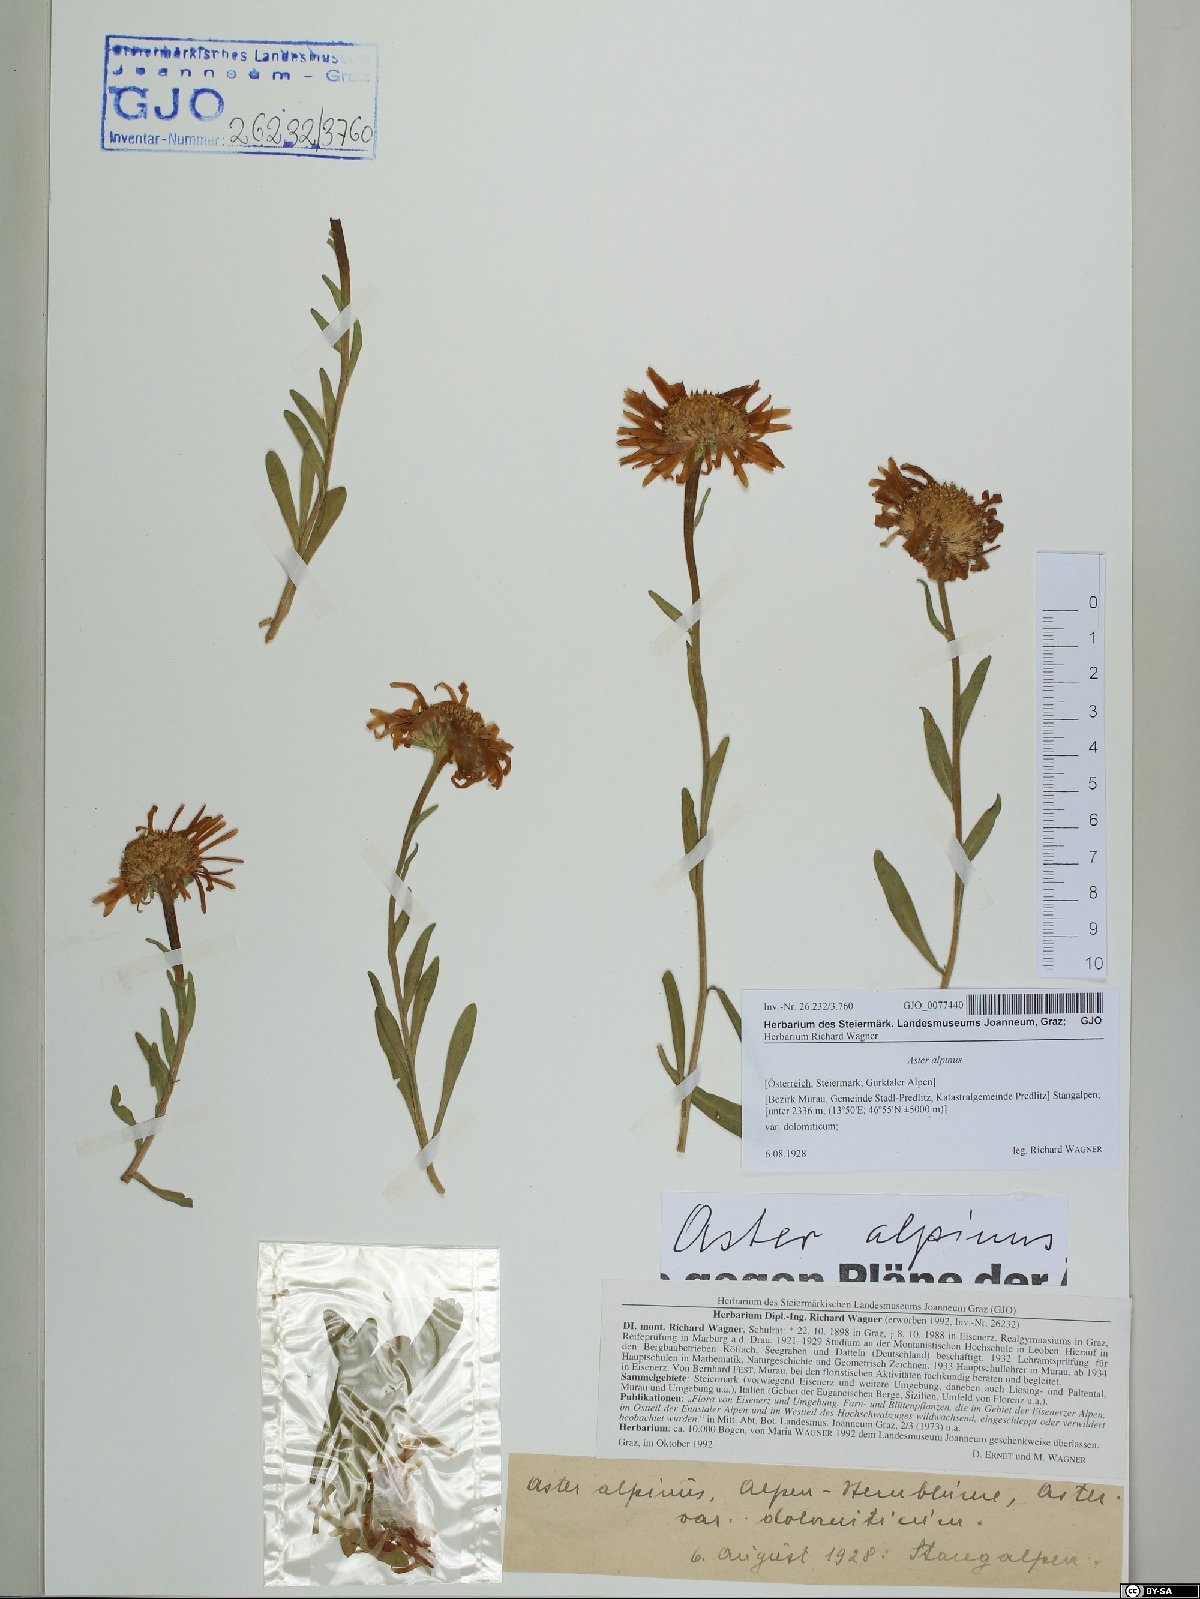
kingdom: Plantae
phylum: Tracheophyta
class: Magnoliopsida
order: Asterales
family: Asteraceae
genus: Aster
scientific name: Aster alpinus
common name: Alpine aster
